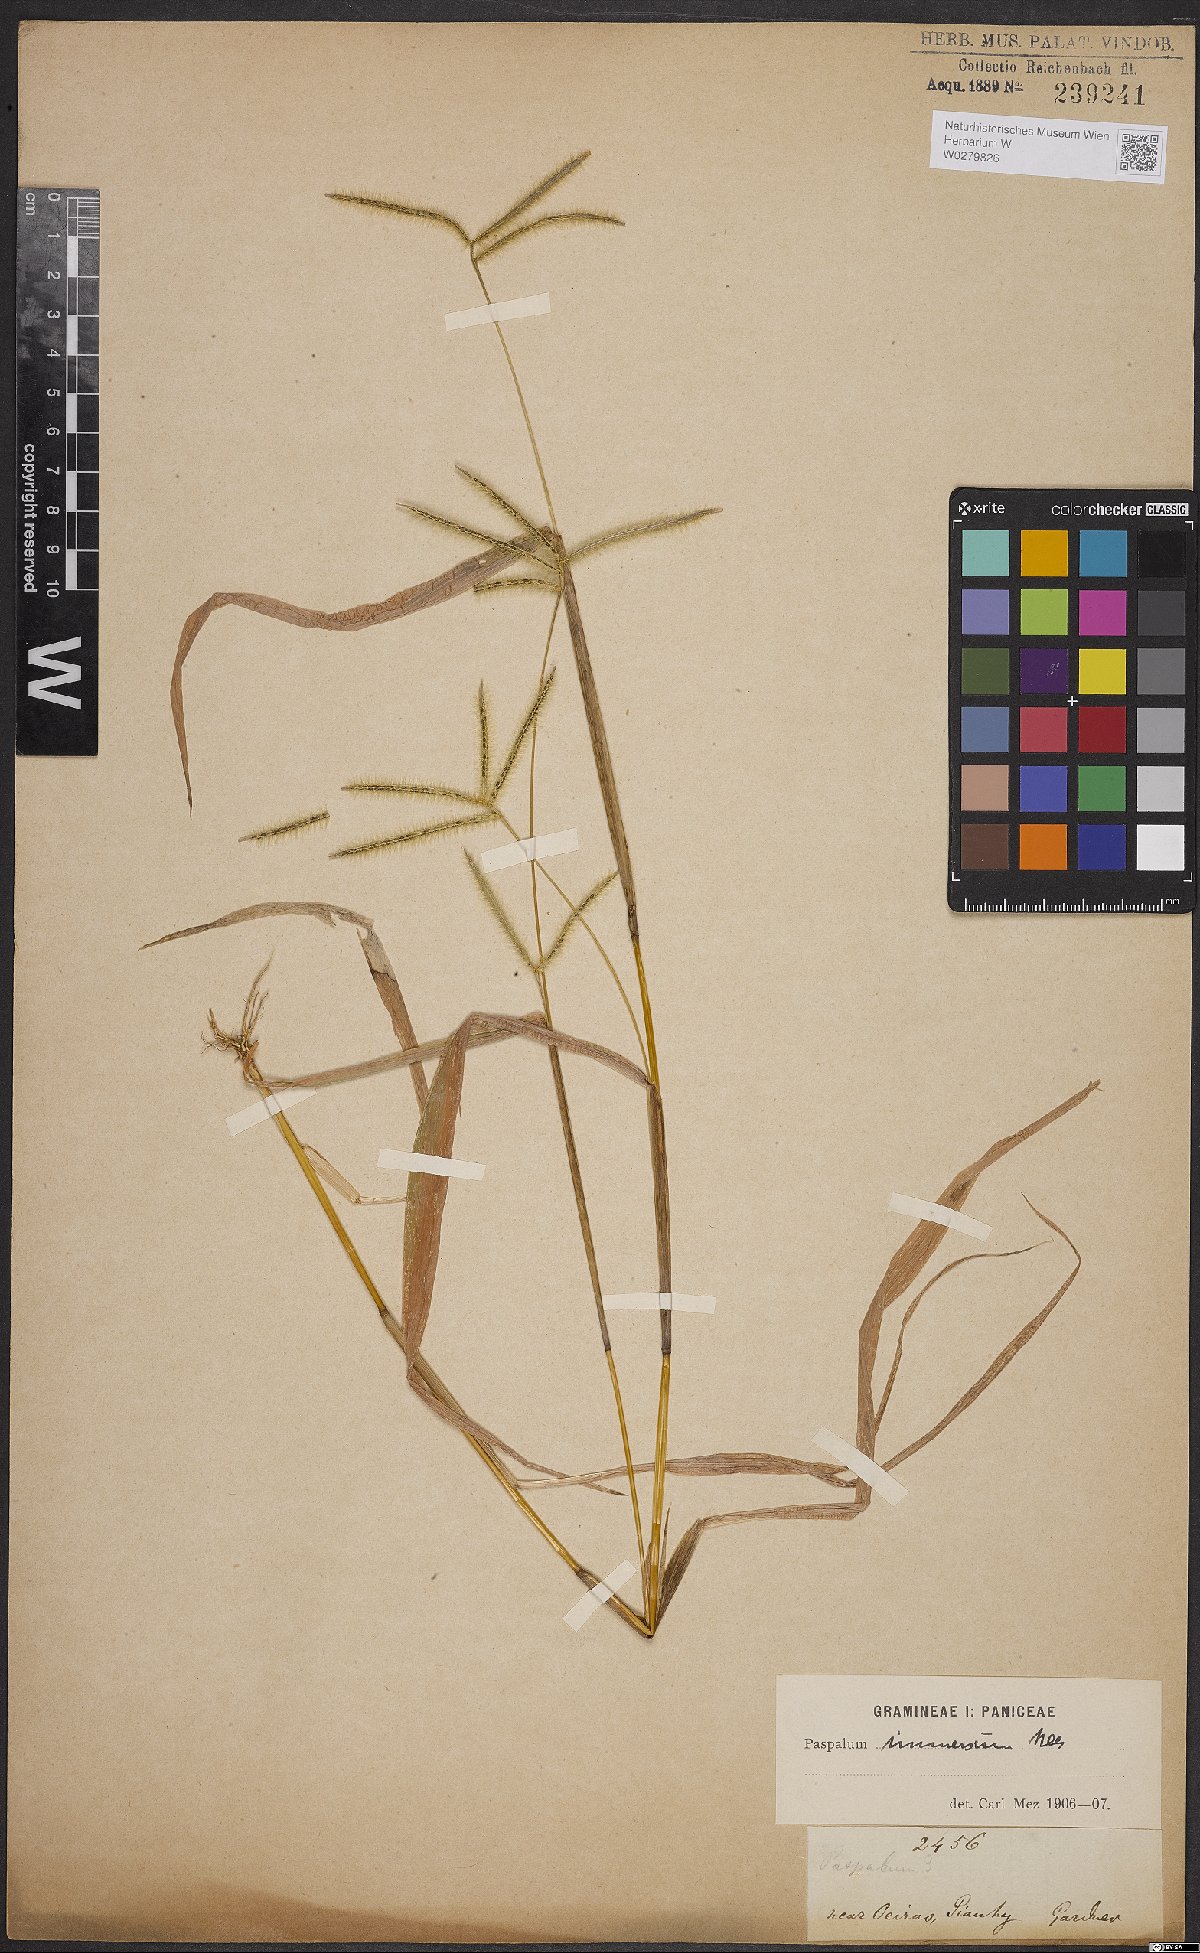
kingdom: Plantae
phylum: Tracheophyta
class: Liliopsida
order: Poales
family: Poaceae
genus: Axonopus
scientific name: Axonopus aureus
